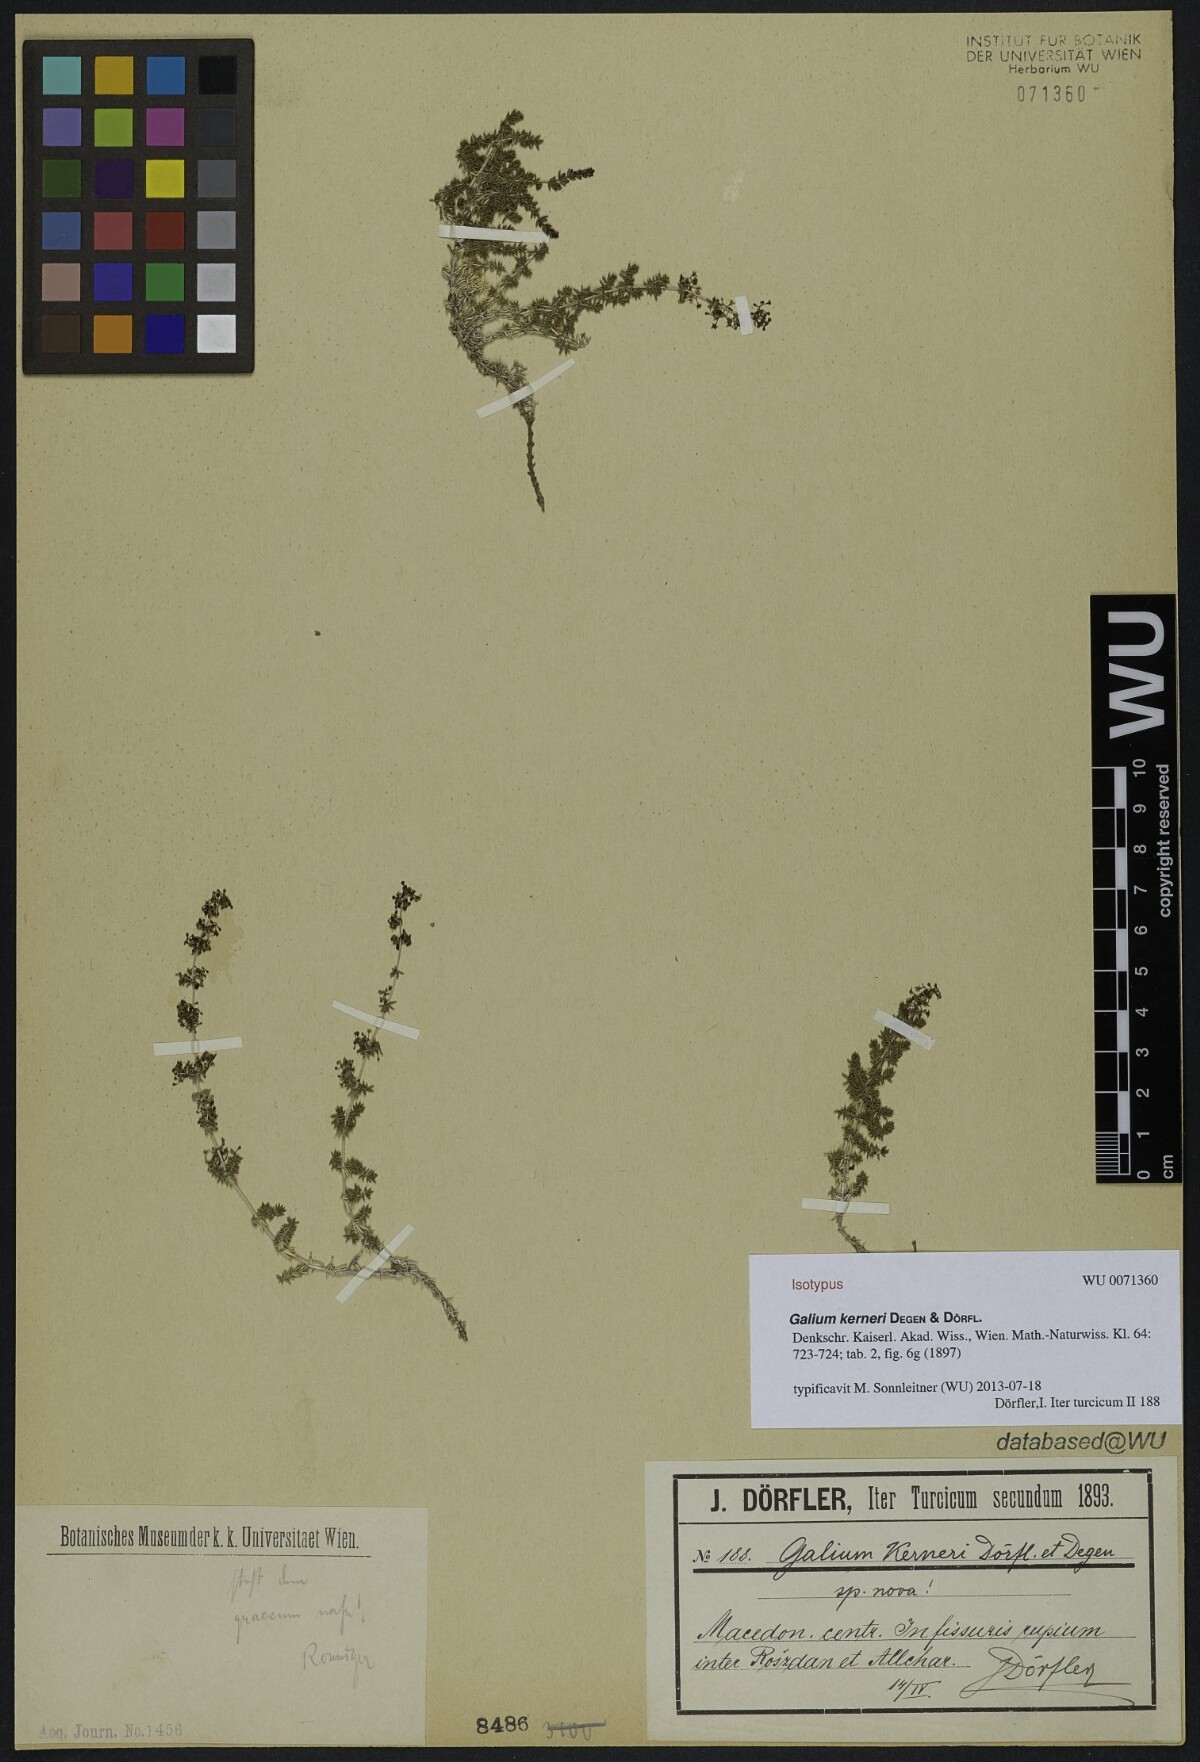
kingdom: Plantae
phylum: Tracheophyta
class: Magnoliopsida
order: Gentianales
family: Rubiaceae
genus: Galium
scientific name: Galium kerneri
